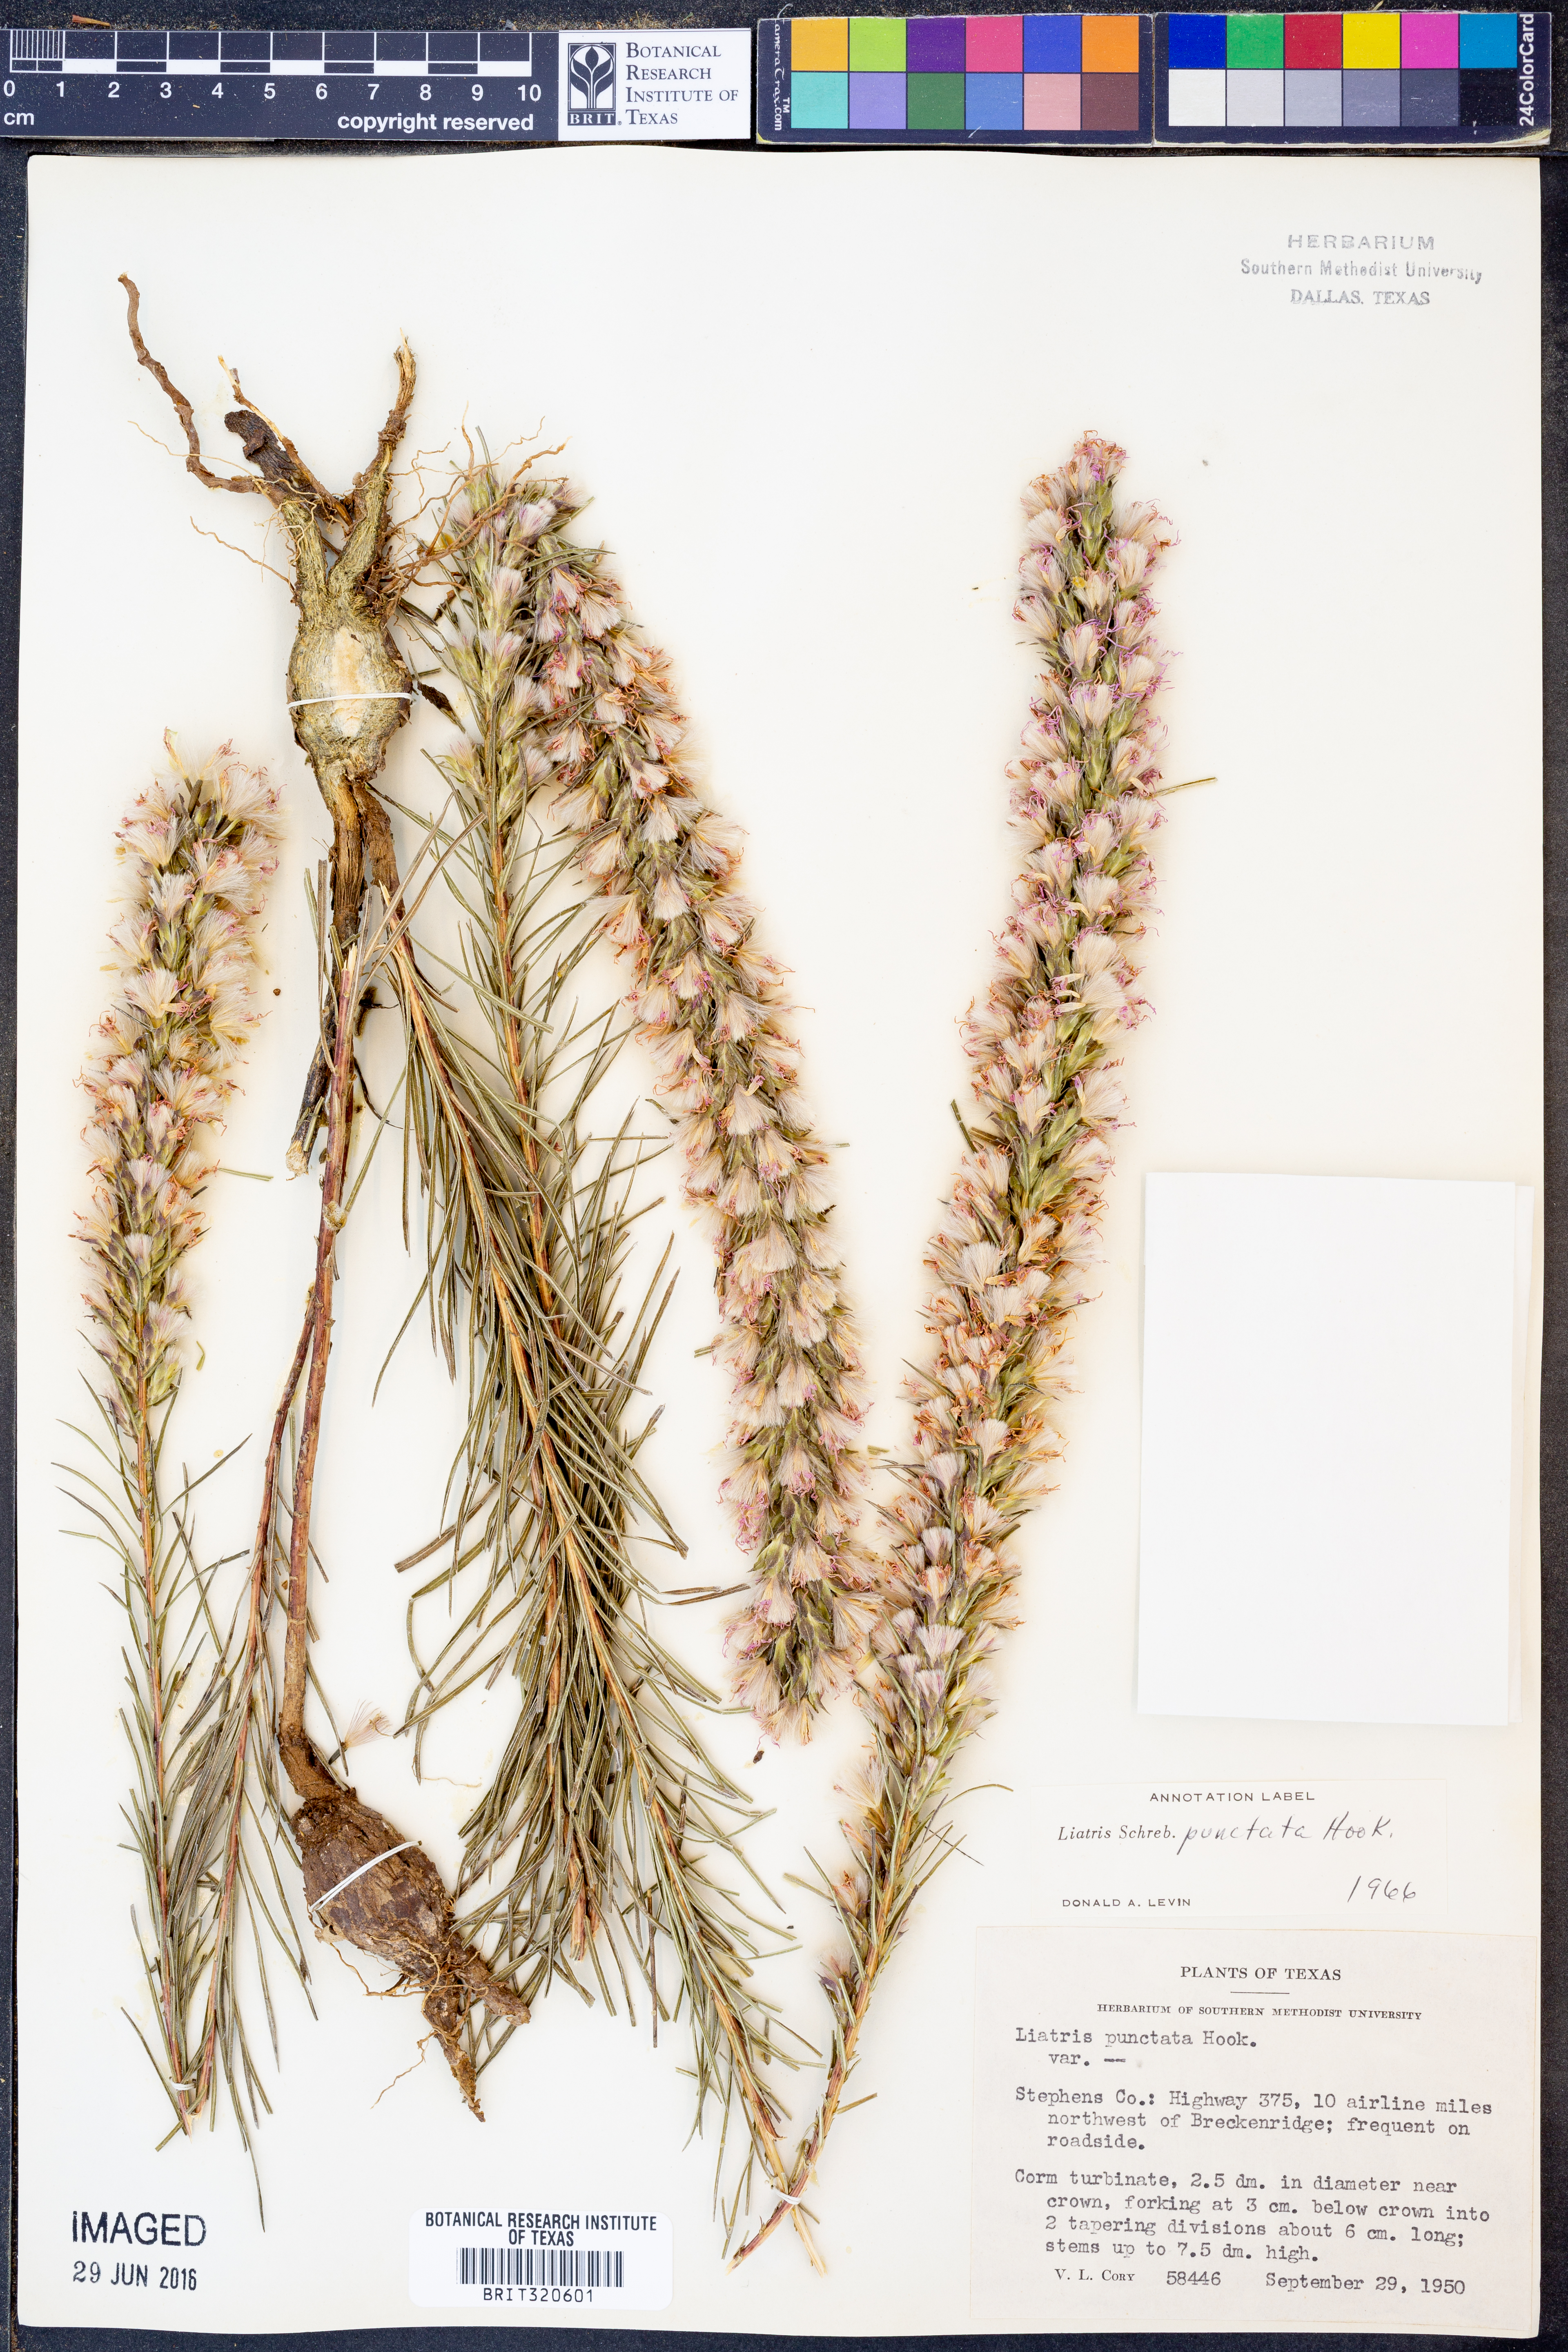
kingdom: Plantae
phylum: Tracheophyta
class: Magnoliopsida
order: Asterales
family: Asteraceae
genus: Liatris
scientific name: Liatris punctata
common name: Dotted gayfeather
